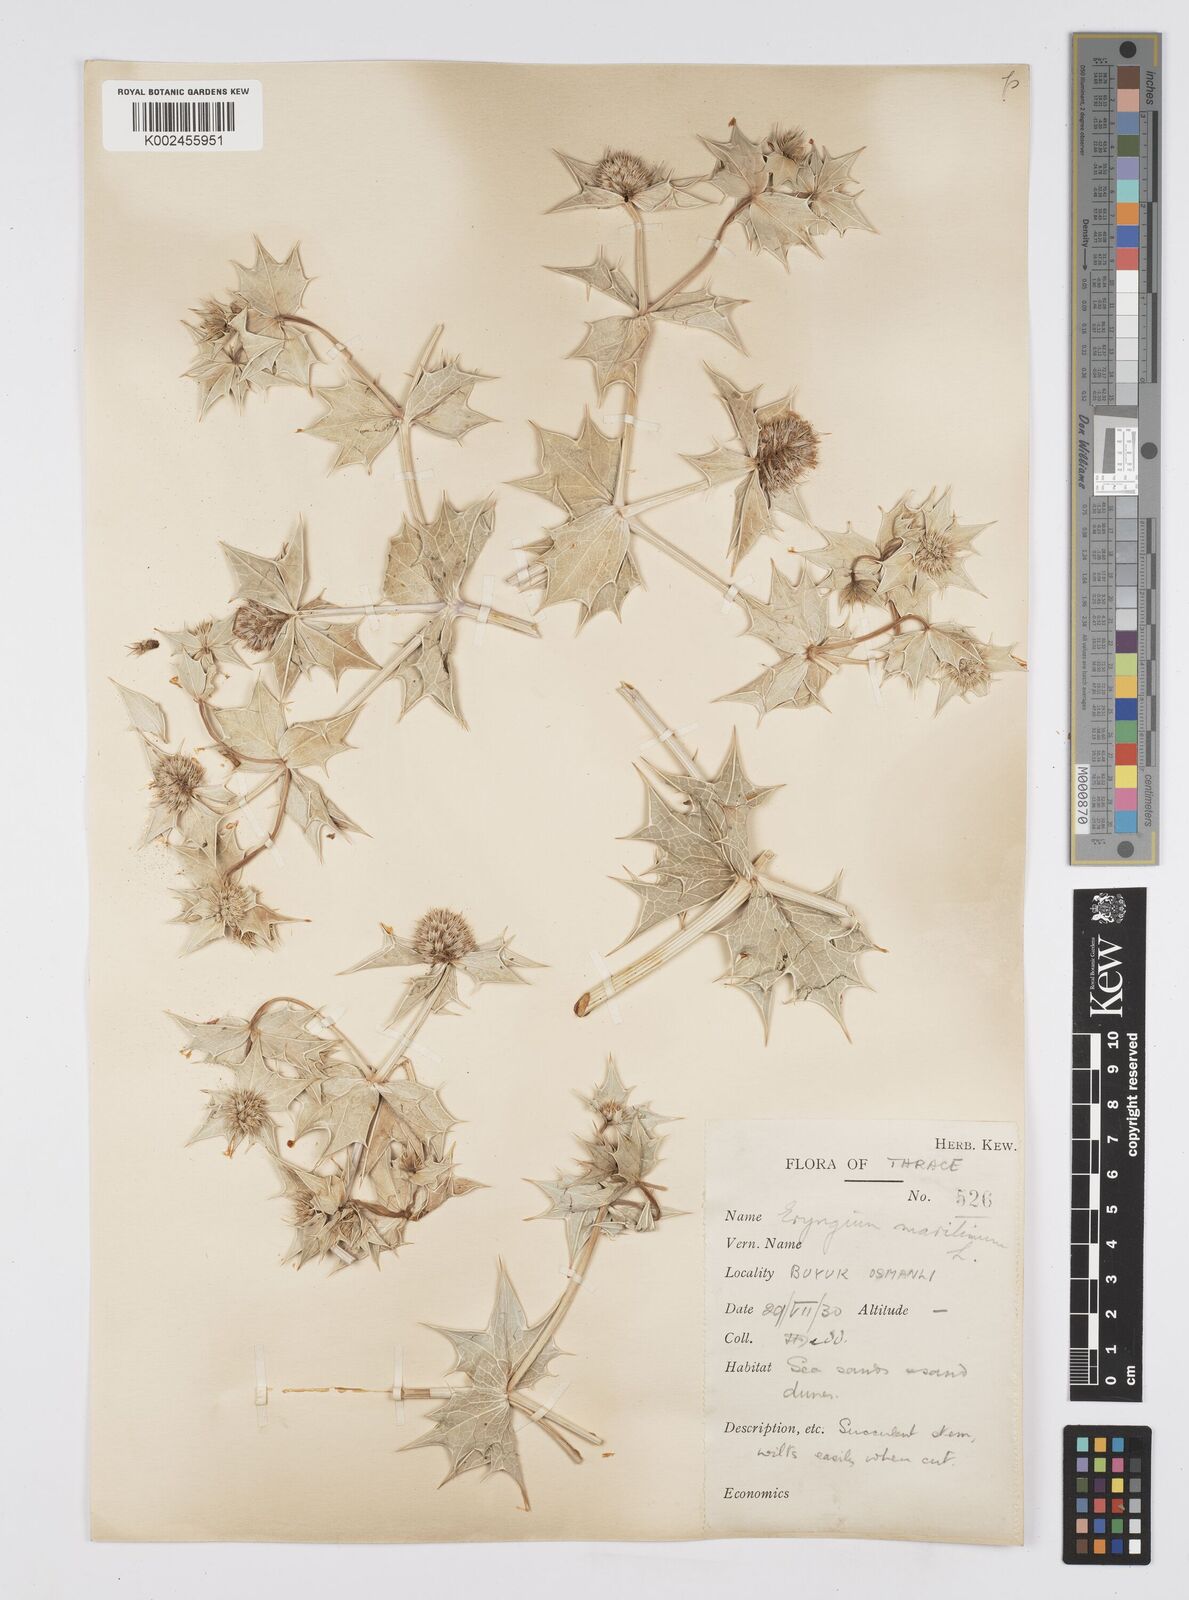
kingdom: Plantae
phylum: Tracheophyta
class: Magnoliopsida
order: Apiales
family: Apiaceae
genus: Eryngium
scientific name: Eryngium maritimum
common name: Sea-holly
